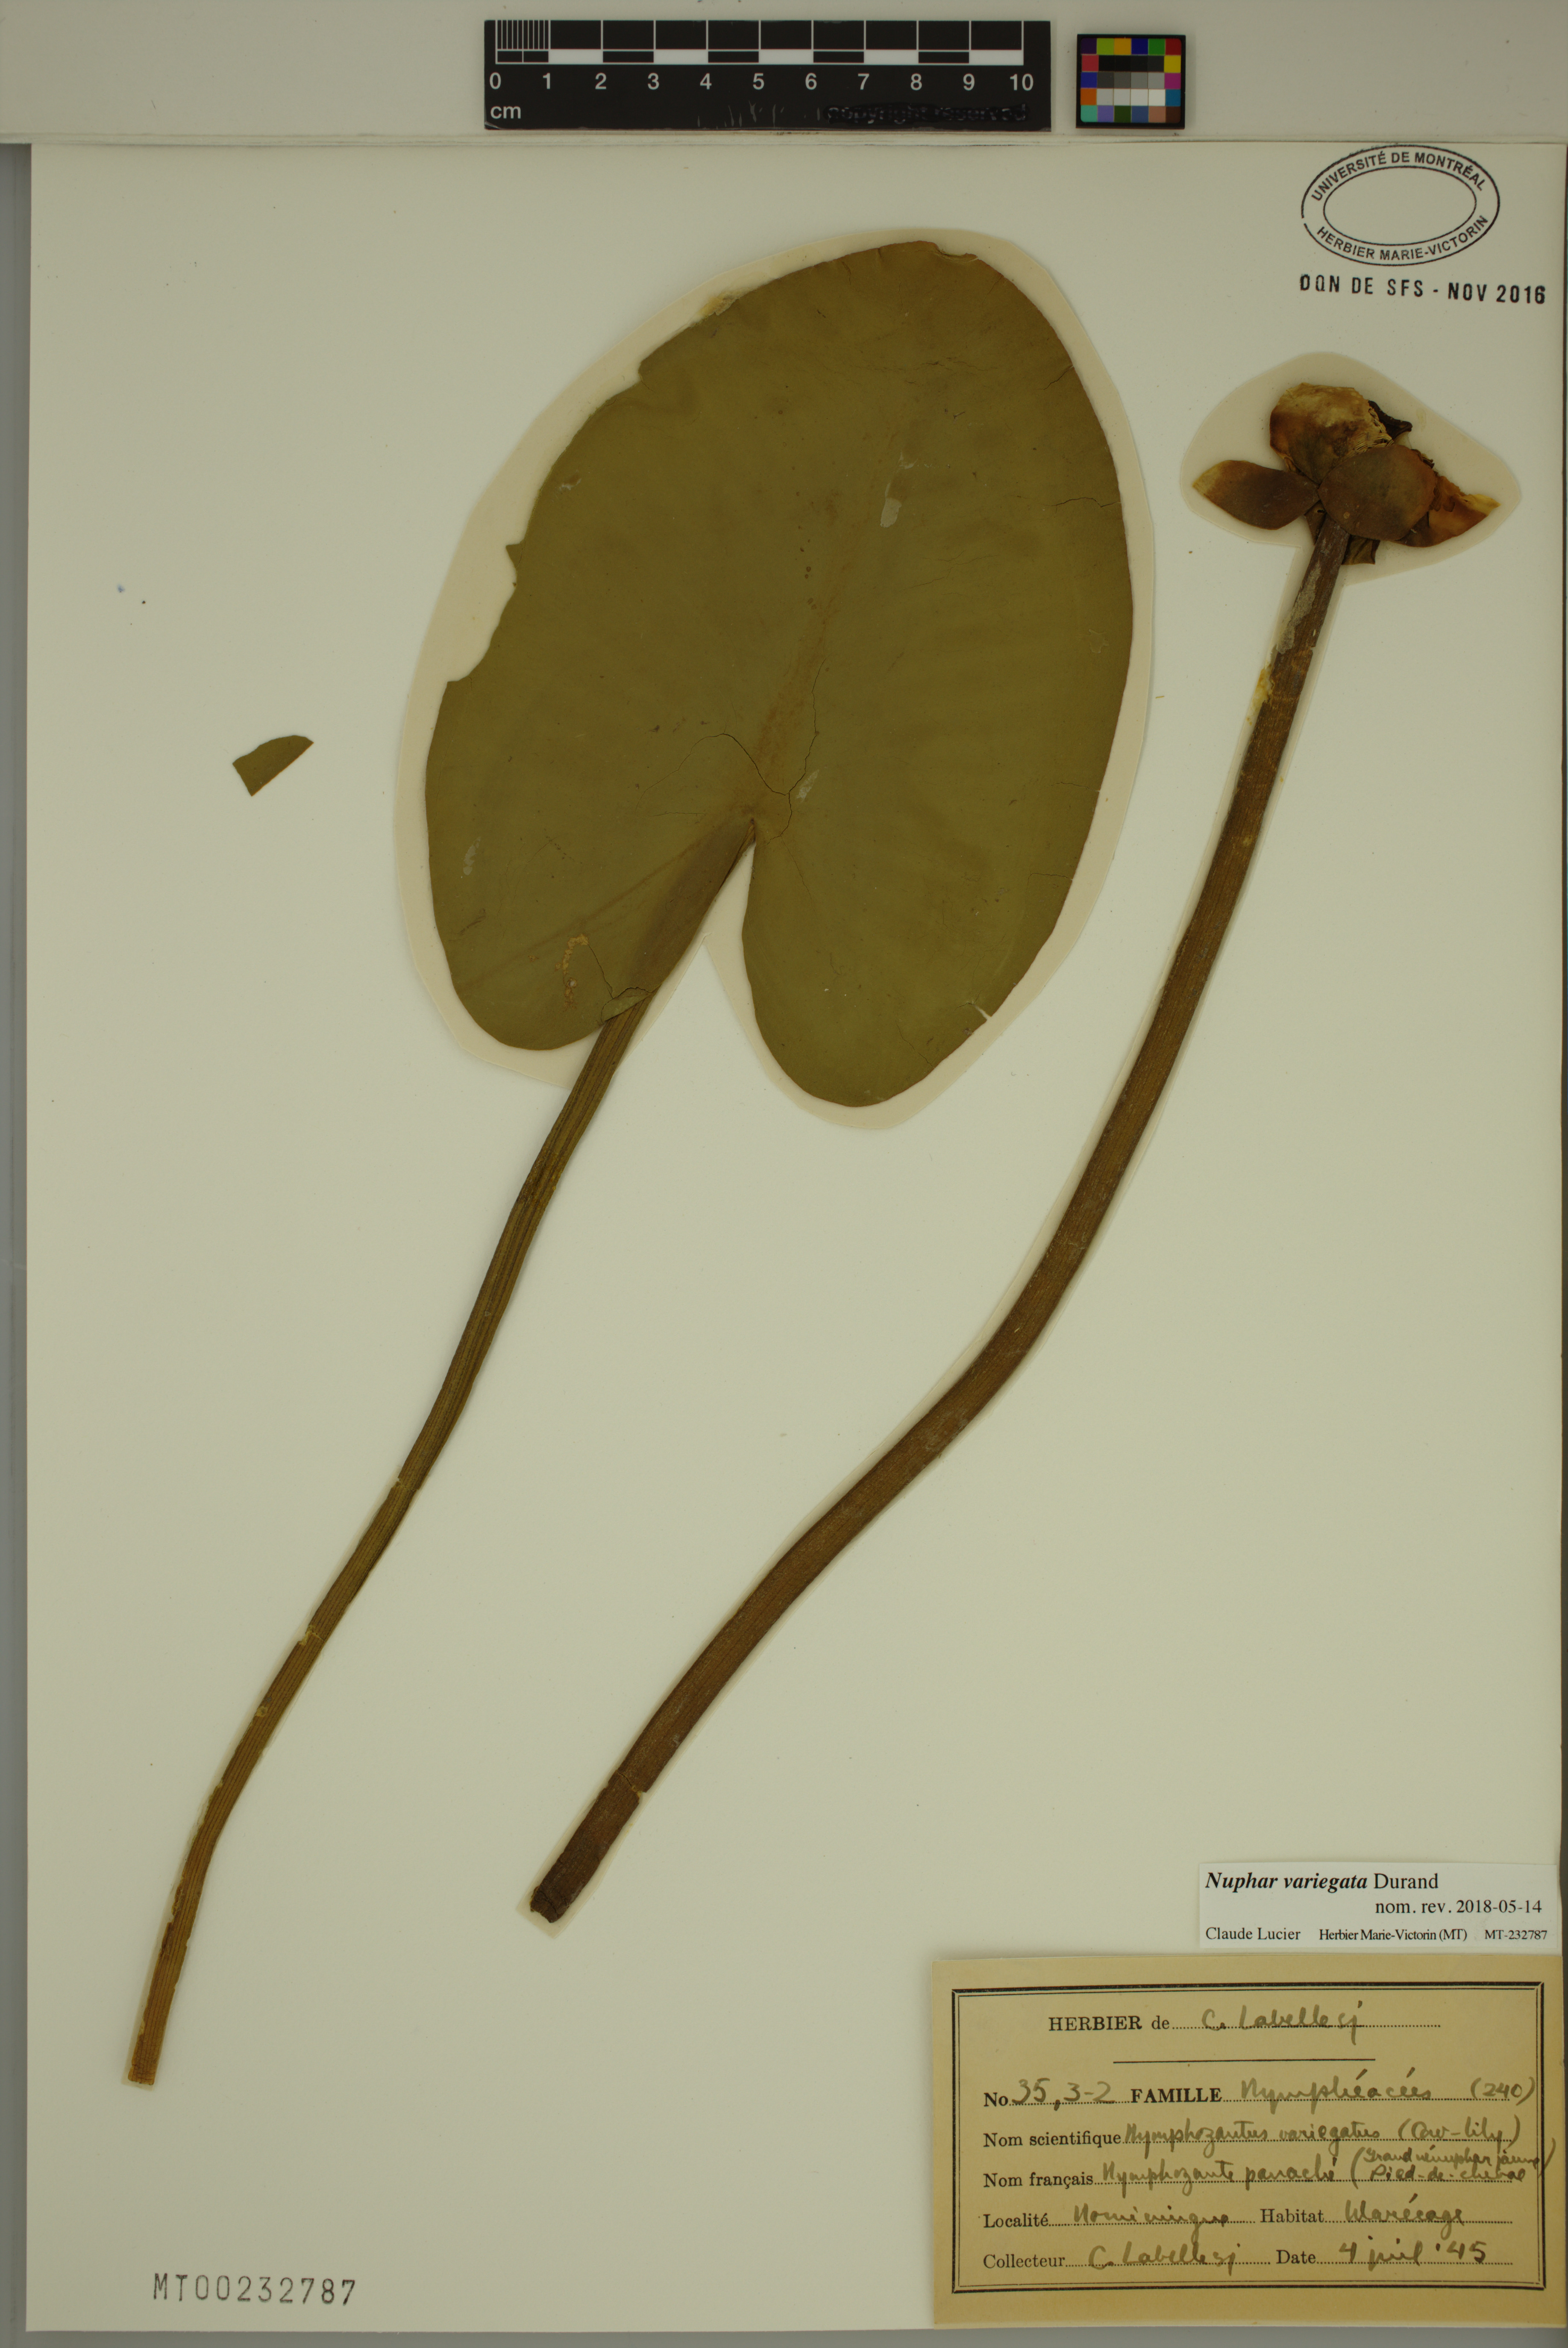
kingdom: Plantae
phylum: Tracheophyta
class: Magnoliopsida
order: Nymphaeales
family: Nymphaeaceae
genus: Nuphar
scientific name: Nuphar variegata
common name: Beaver-root
